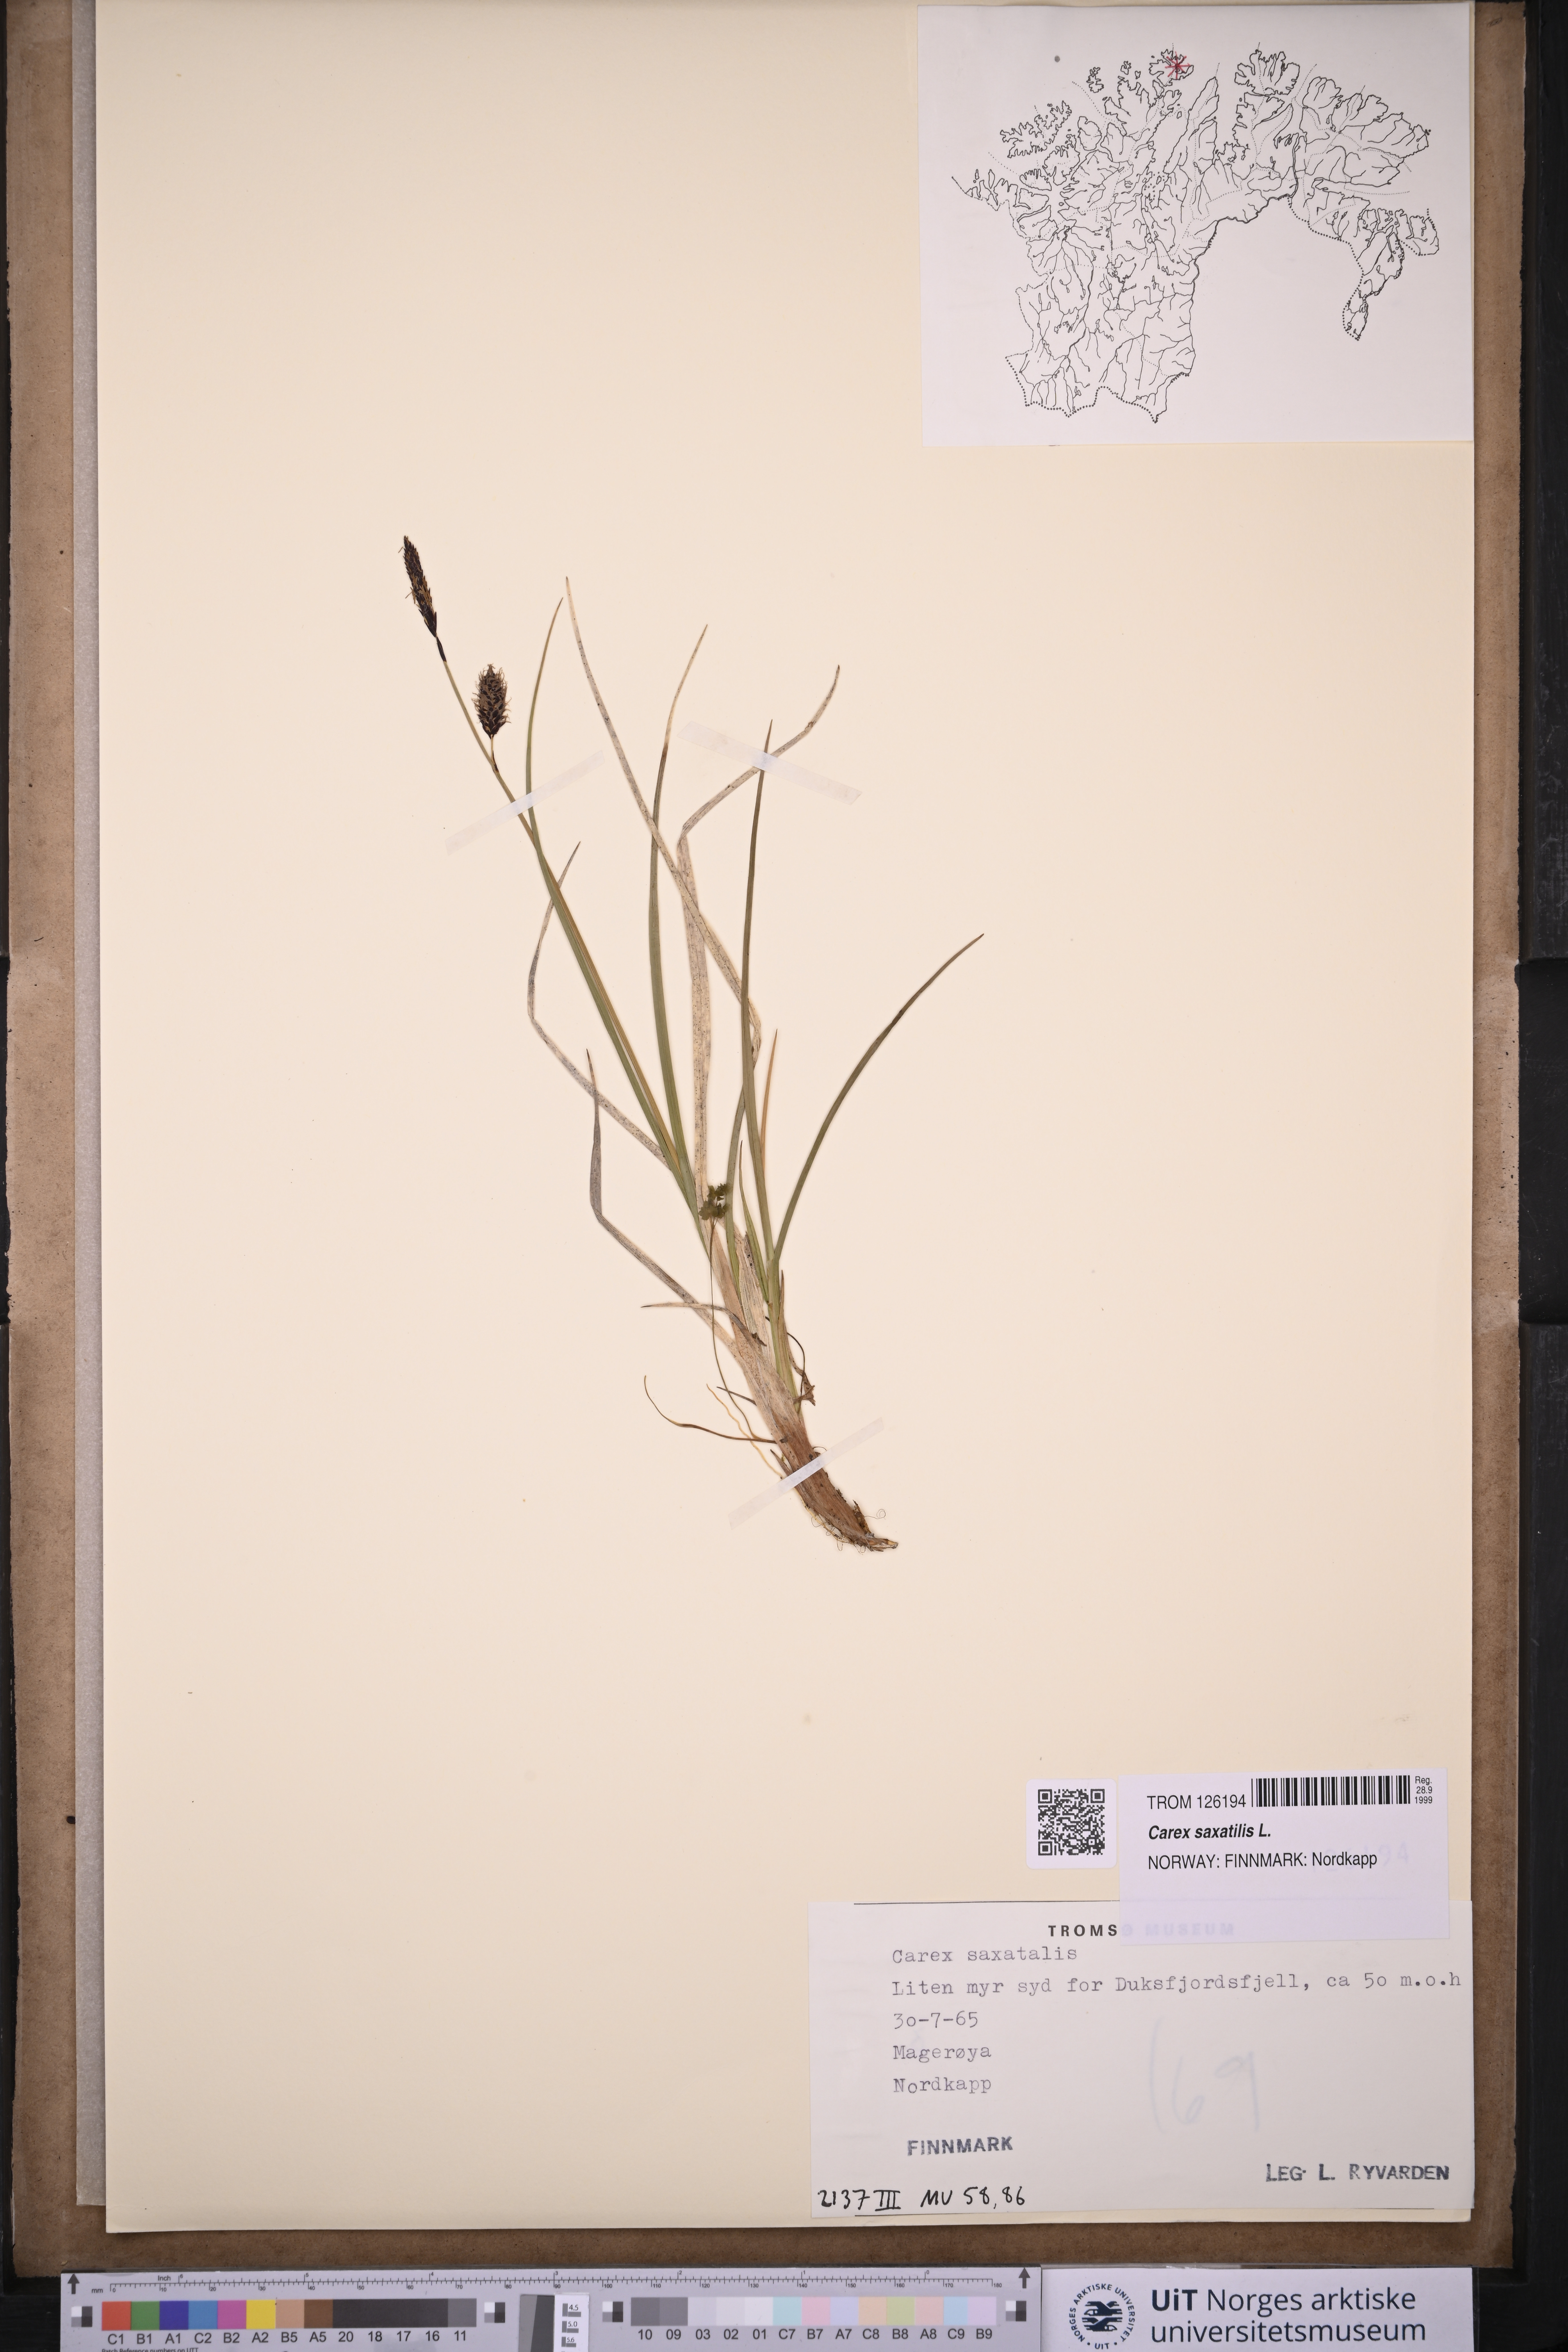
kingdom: Plantae
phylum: Tracheophyta
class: Liliopsida
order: Poales
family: Cyperaceae
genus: Carex
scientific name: Carex saxatilis
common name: Russet sedge
